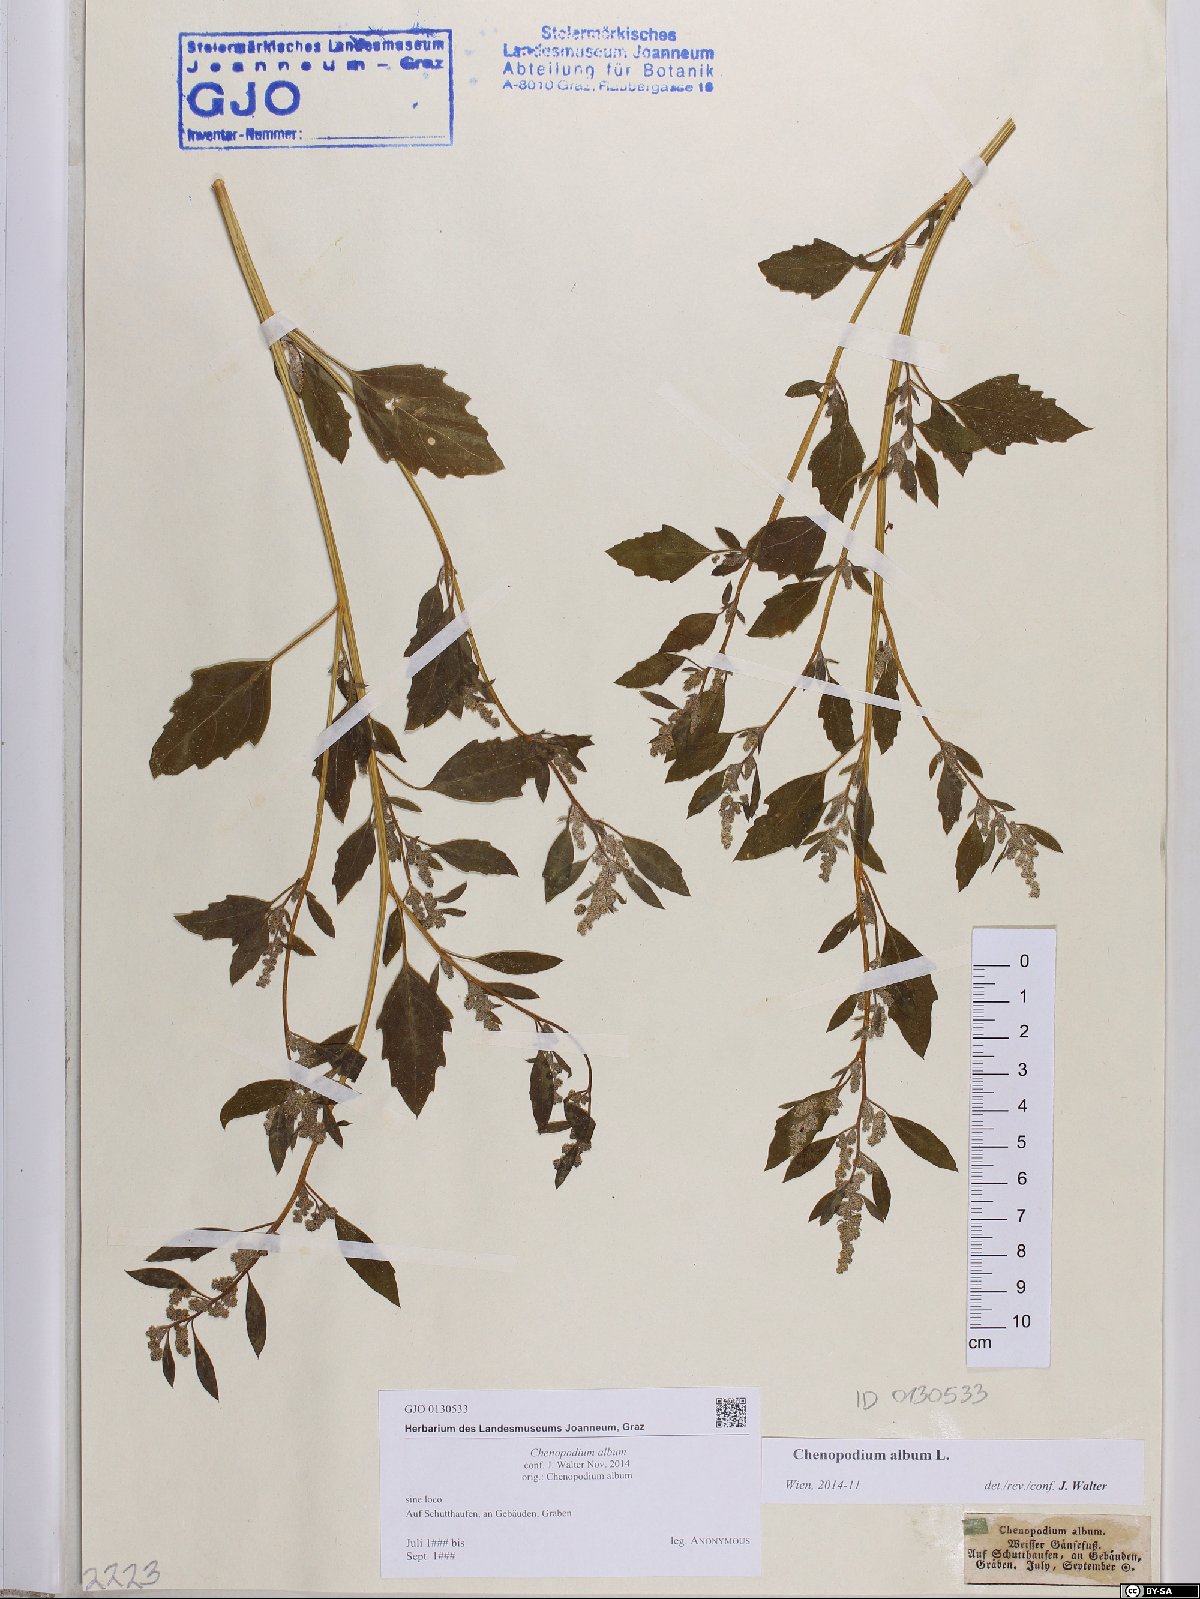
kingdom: Plantae
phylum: Tracheophyta
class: Magnoliopsida
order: Caryophyllales
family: Amaranthaceae
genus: Chenopodium
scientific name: Chenopodium album
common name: Fat-hen
